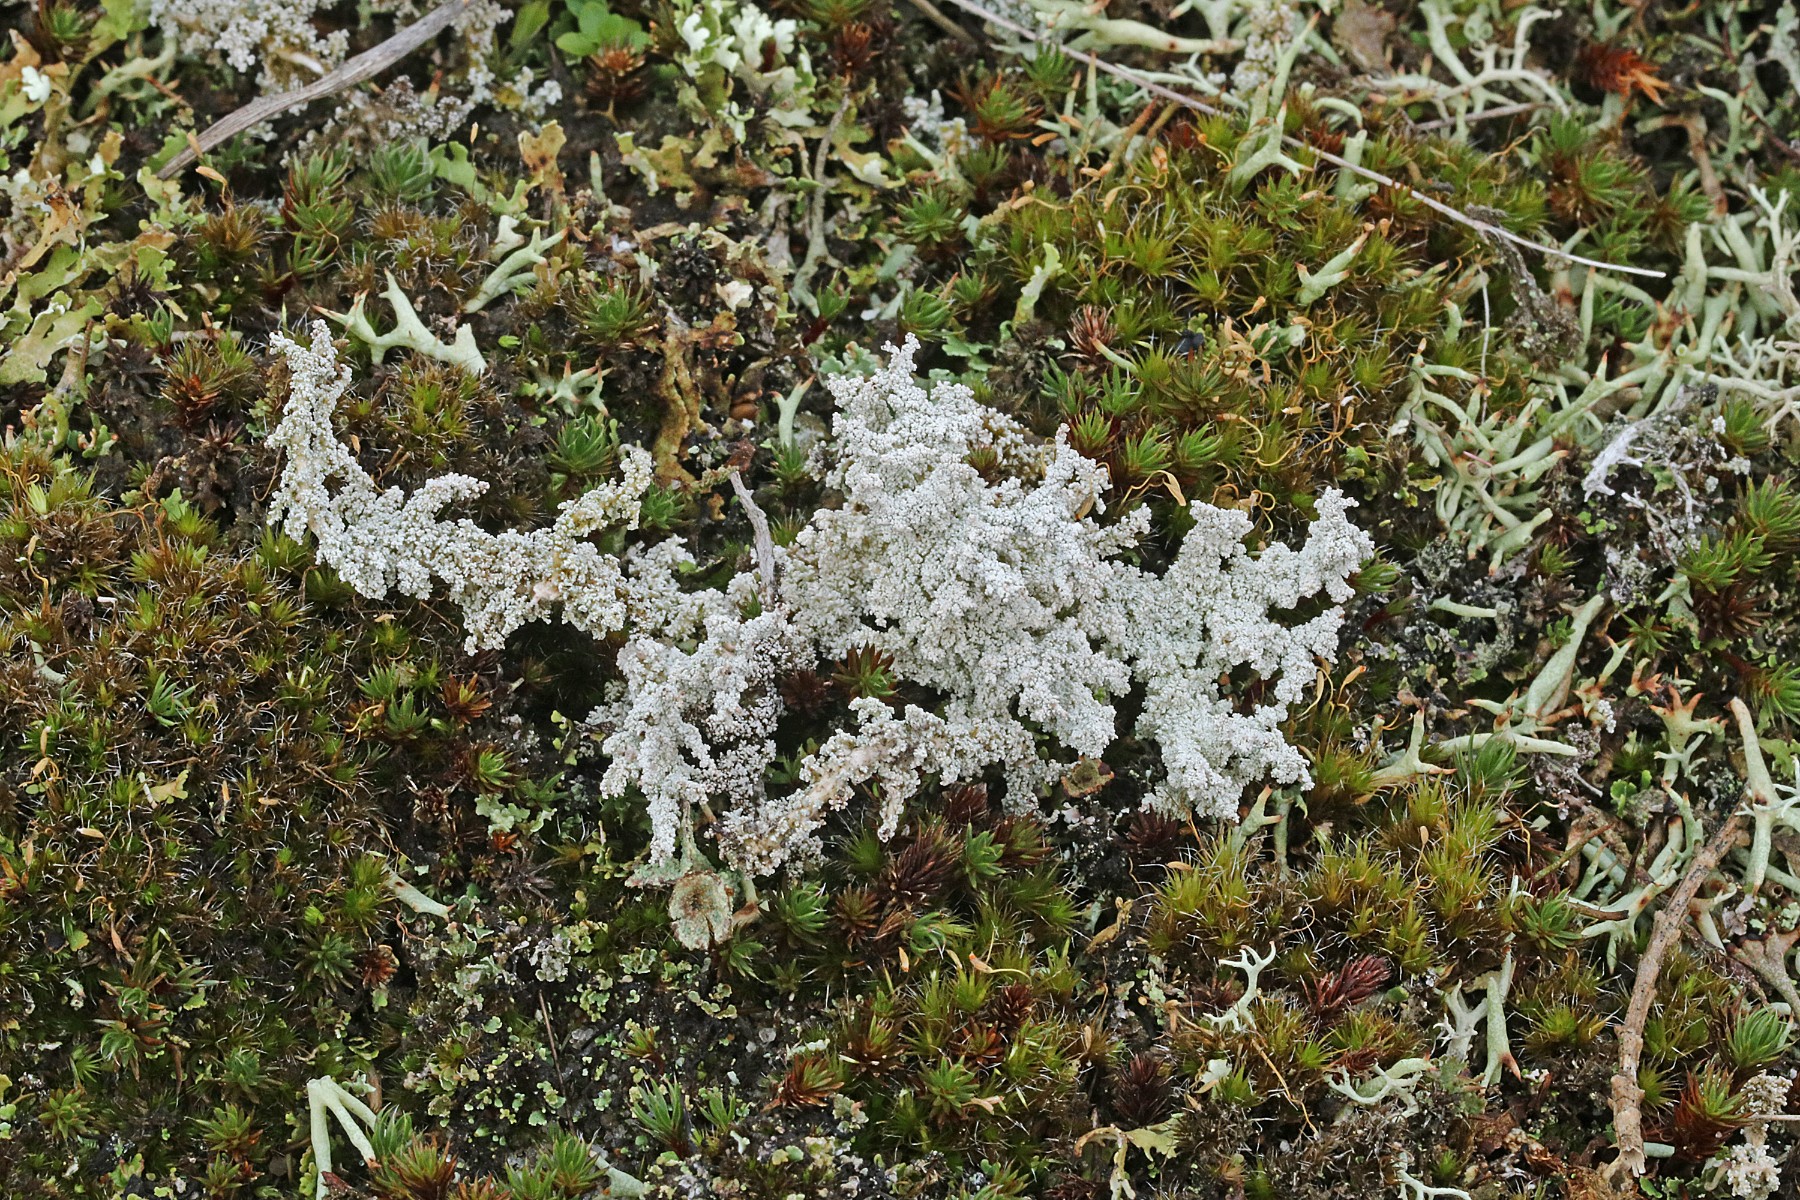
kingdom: Fungi
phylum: Ascomycota
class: Lecanoromycetes
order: Lecanorales
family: Stereocaulaceae
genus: Stereocaulon
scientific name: Stereocaulon saxatile
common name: klit-korallav
